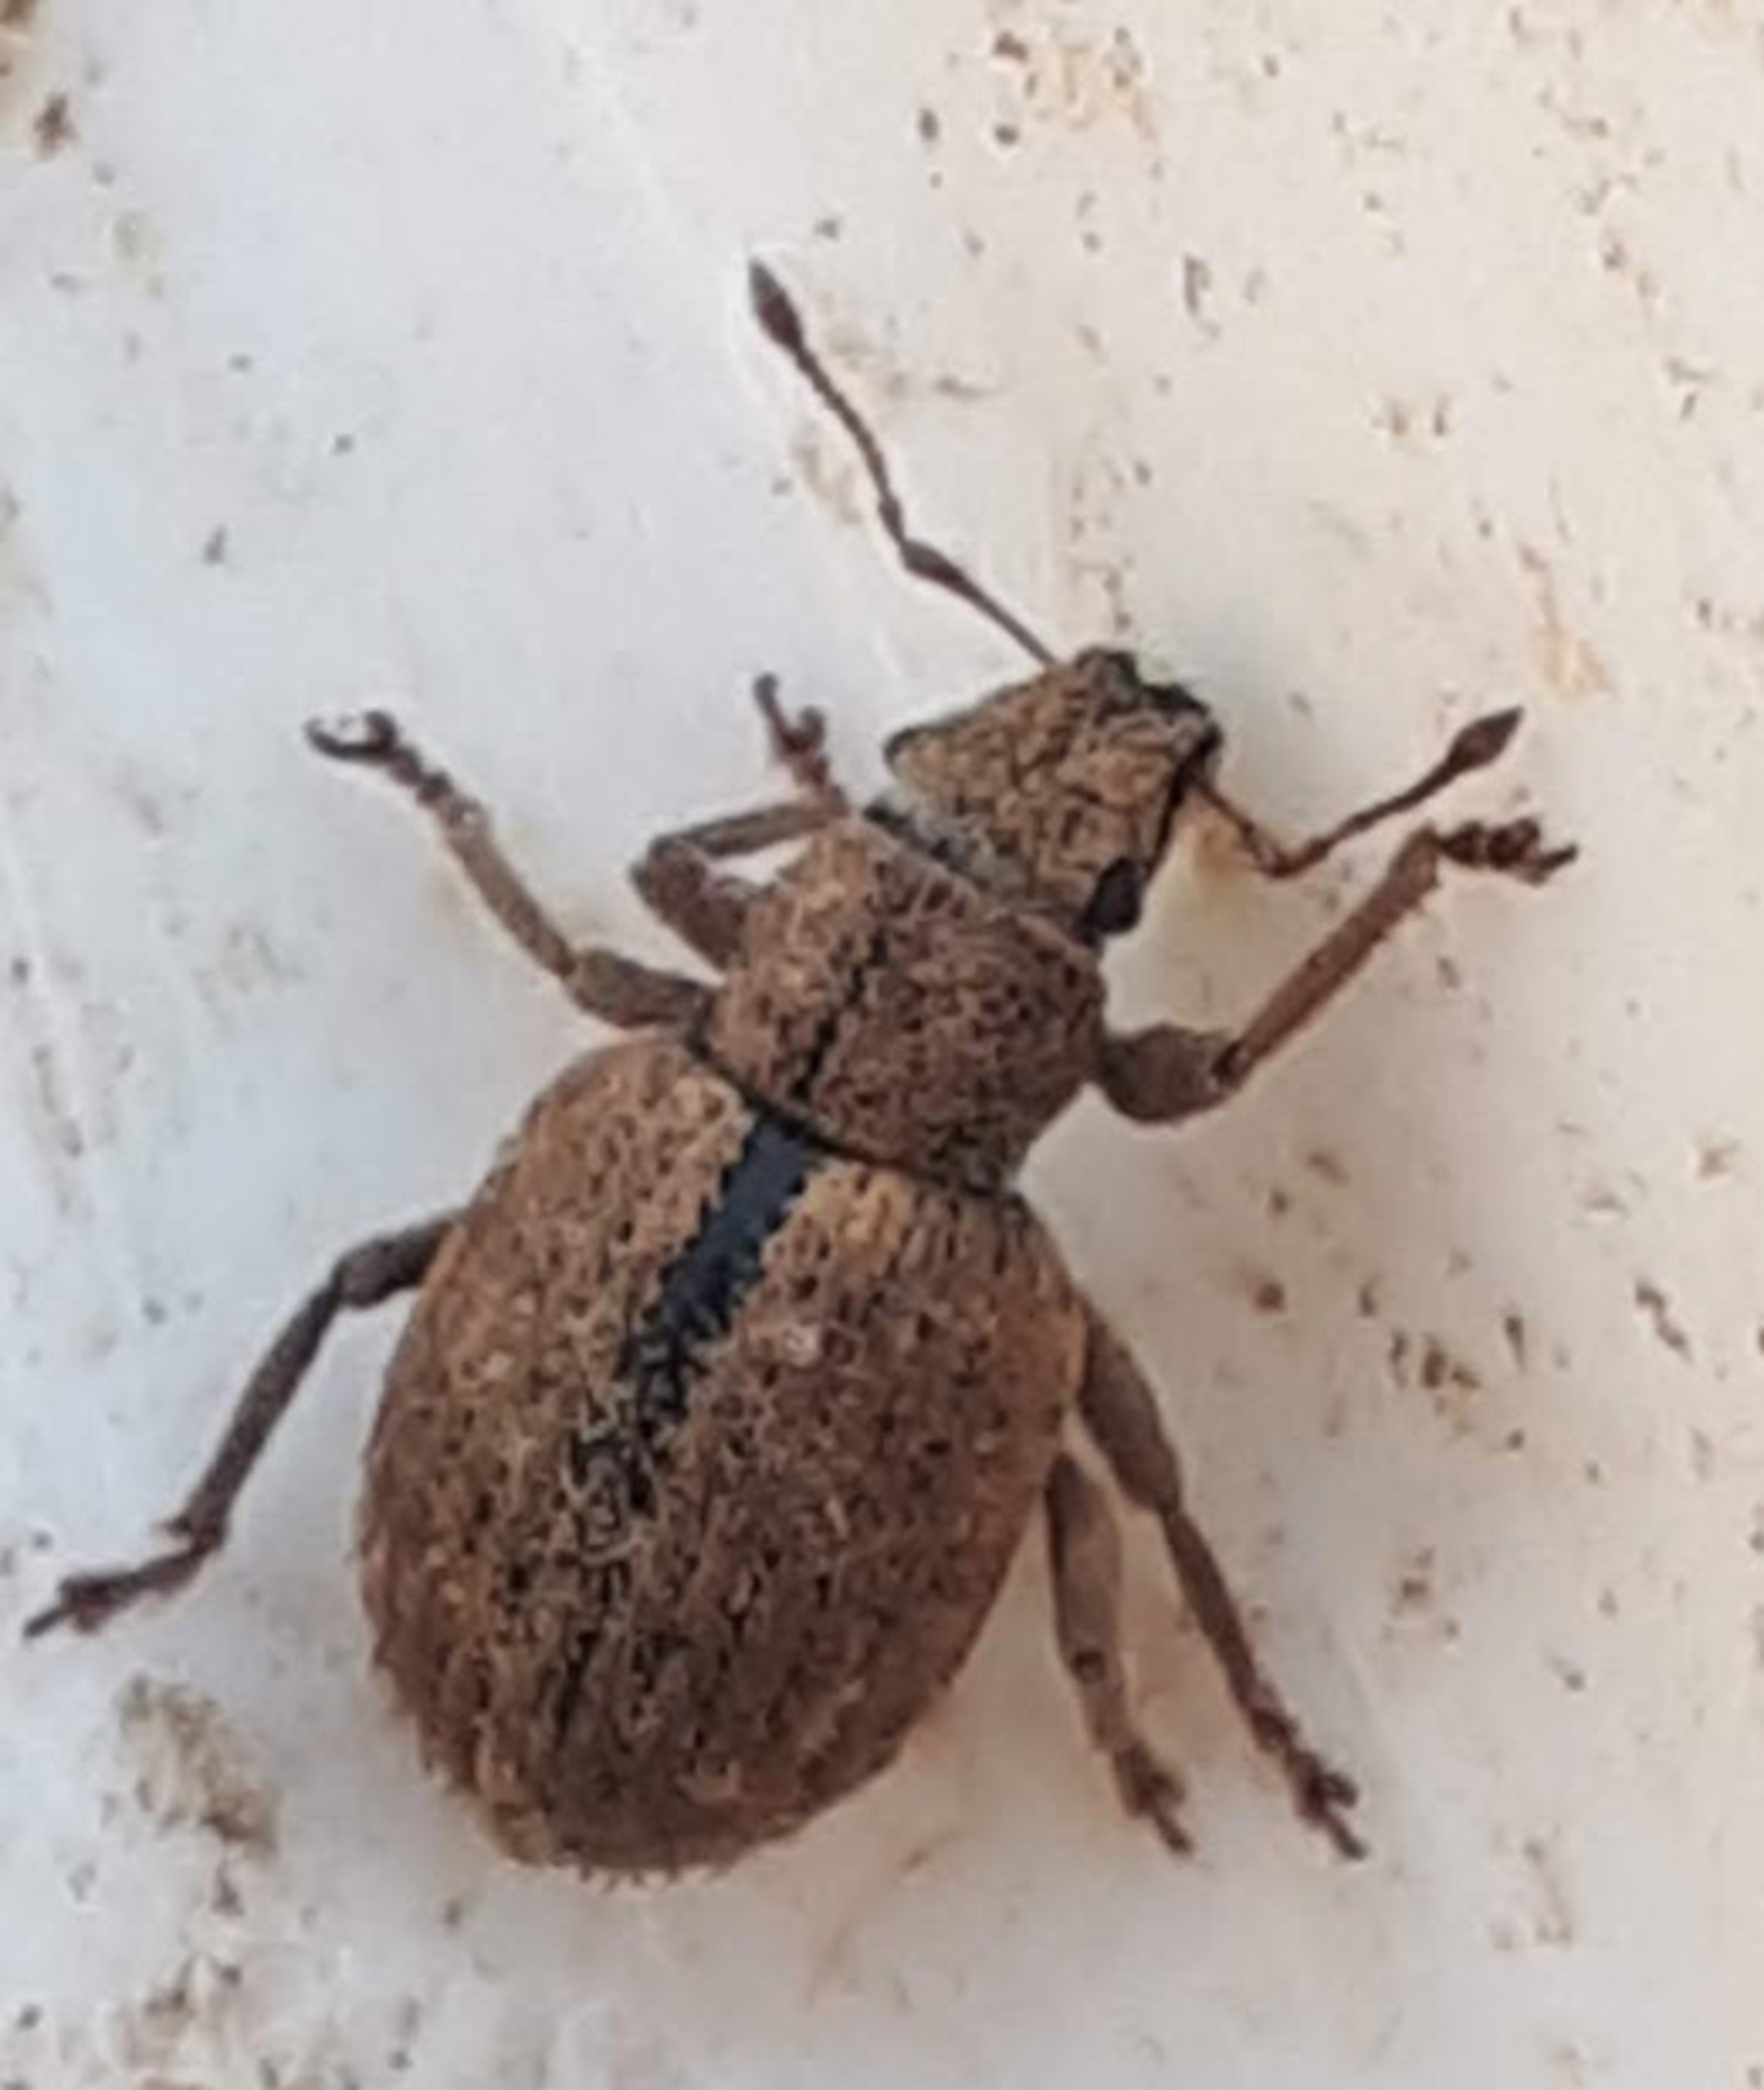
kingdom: Animalia
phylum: Arthropoda
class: Insecta
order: Coleoptera
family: Curculionidae
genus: Strophosoma
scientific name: Strophosoma melanogrammum
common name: Stribet gråsnude
